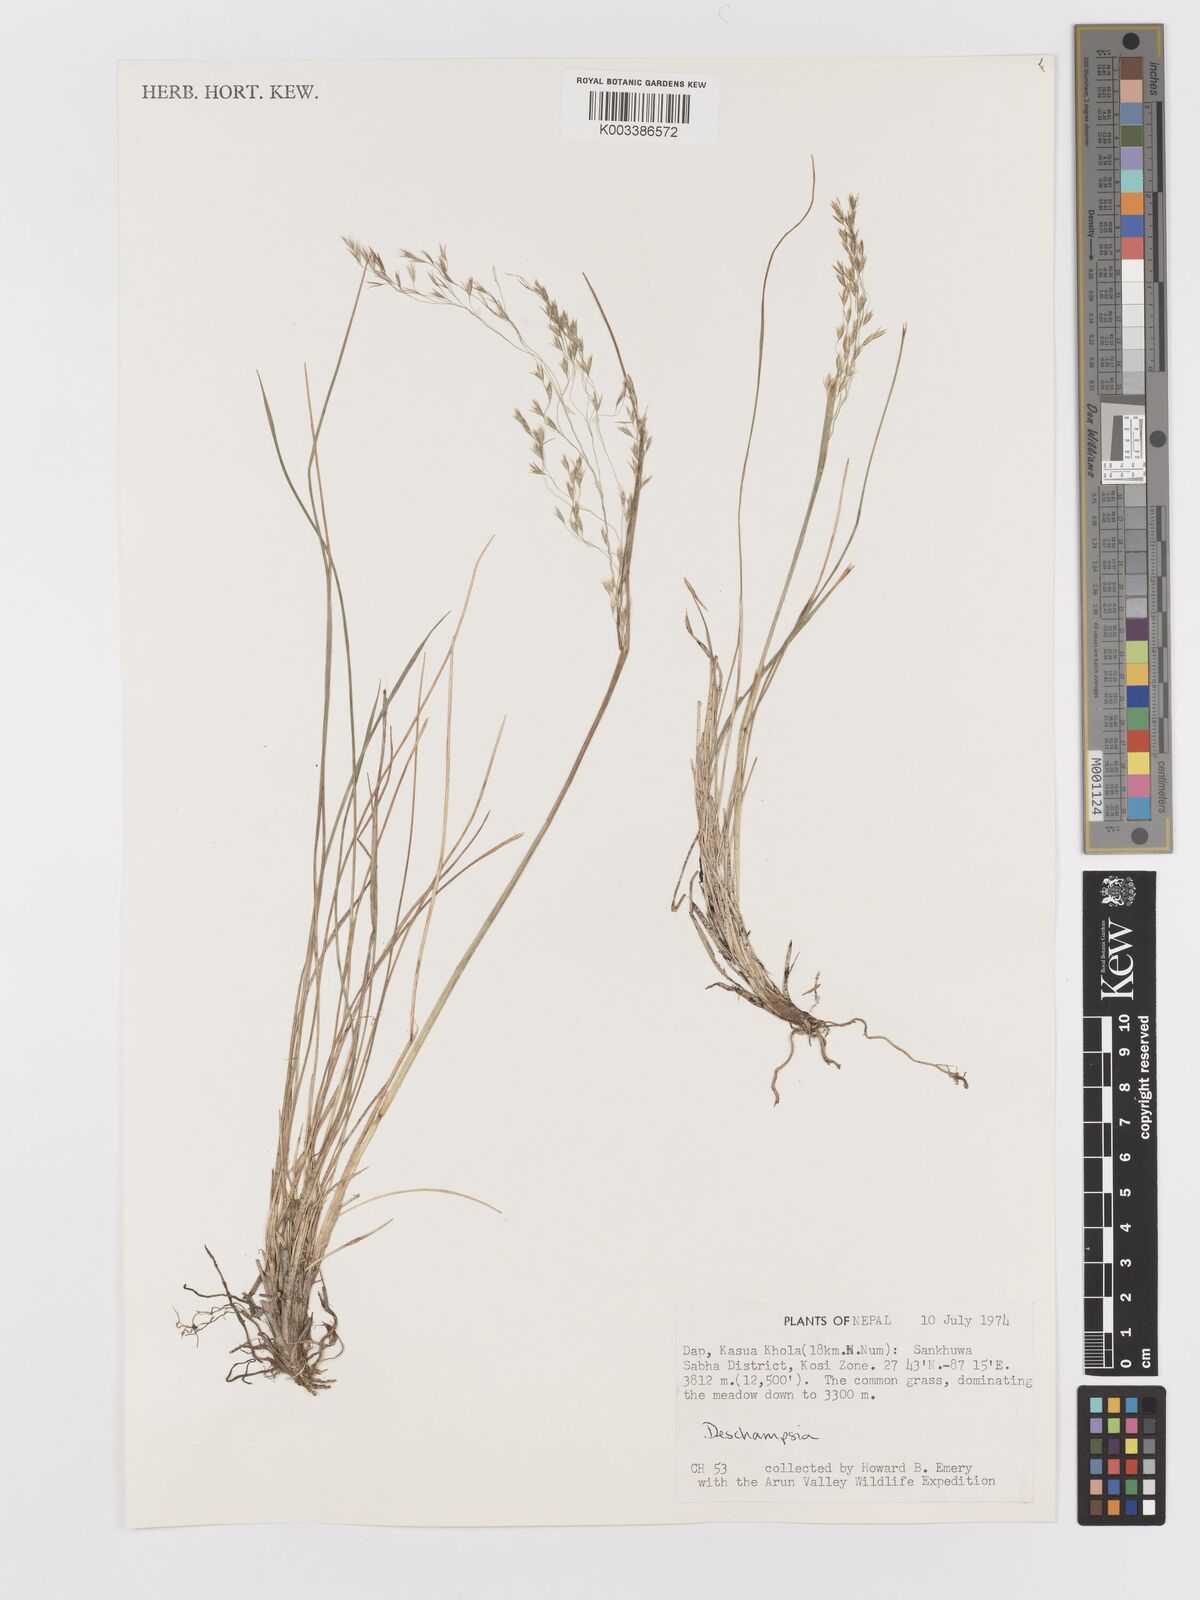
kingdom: Plantae
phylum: Tracheophyta
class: Liliopsida
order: Poales
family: Poaceae
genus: Deschampsia
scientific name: Deschampsia
